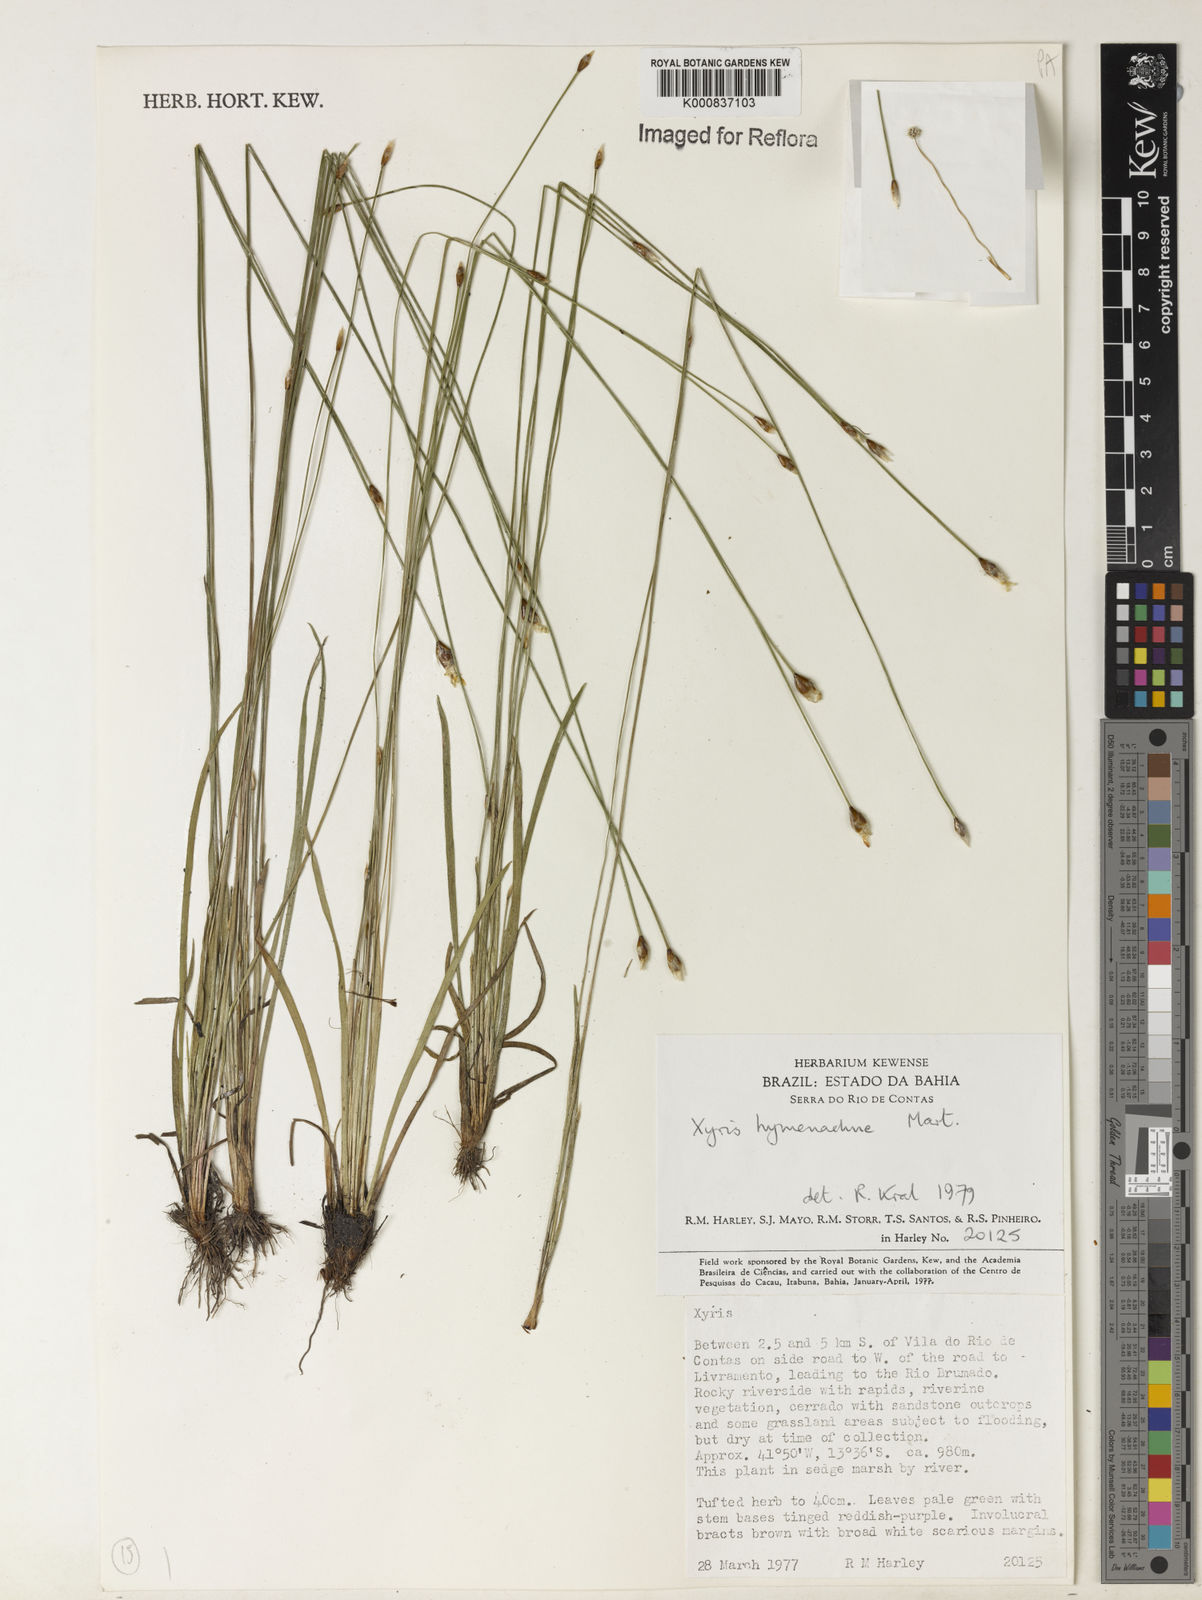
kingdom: Plantae
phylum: Tracheophyta
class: Liliopsida
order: Poales
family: Xyridaceae
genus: Xyris
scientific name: Xyris hymenachne
